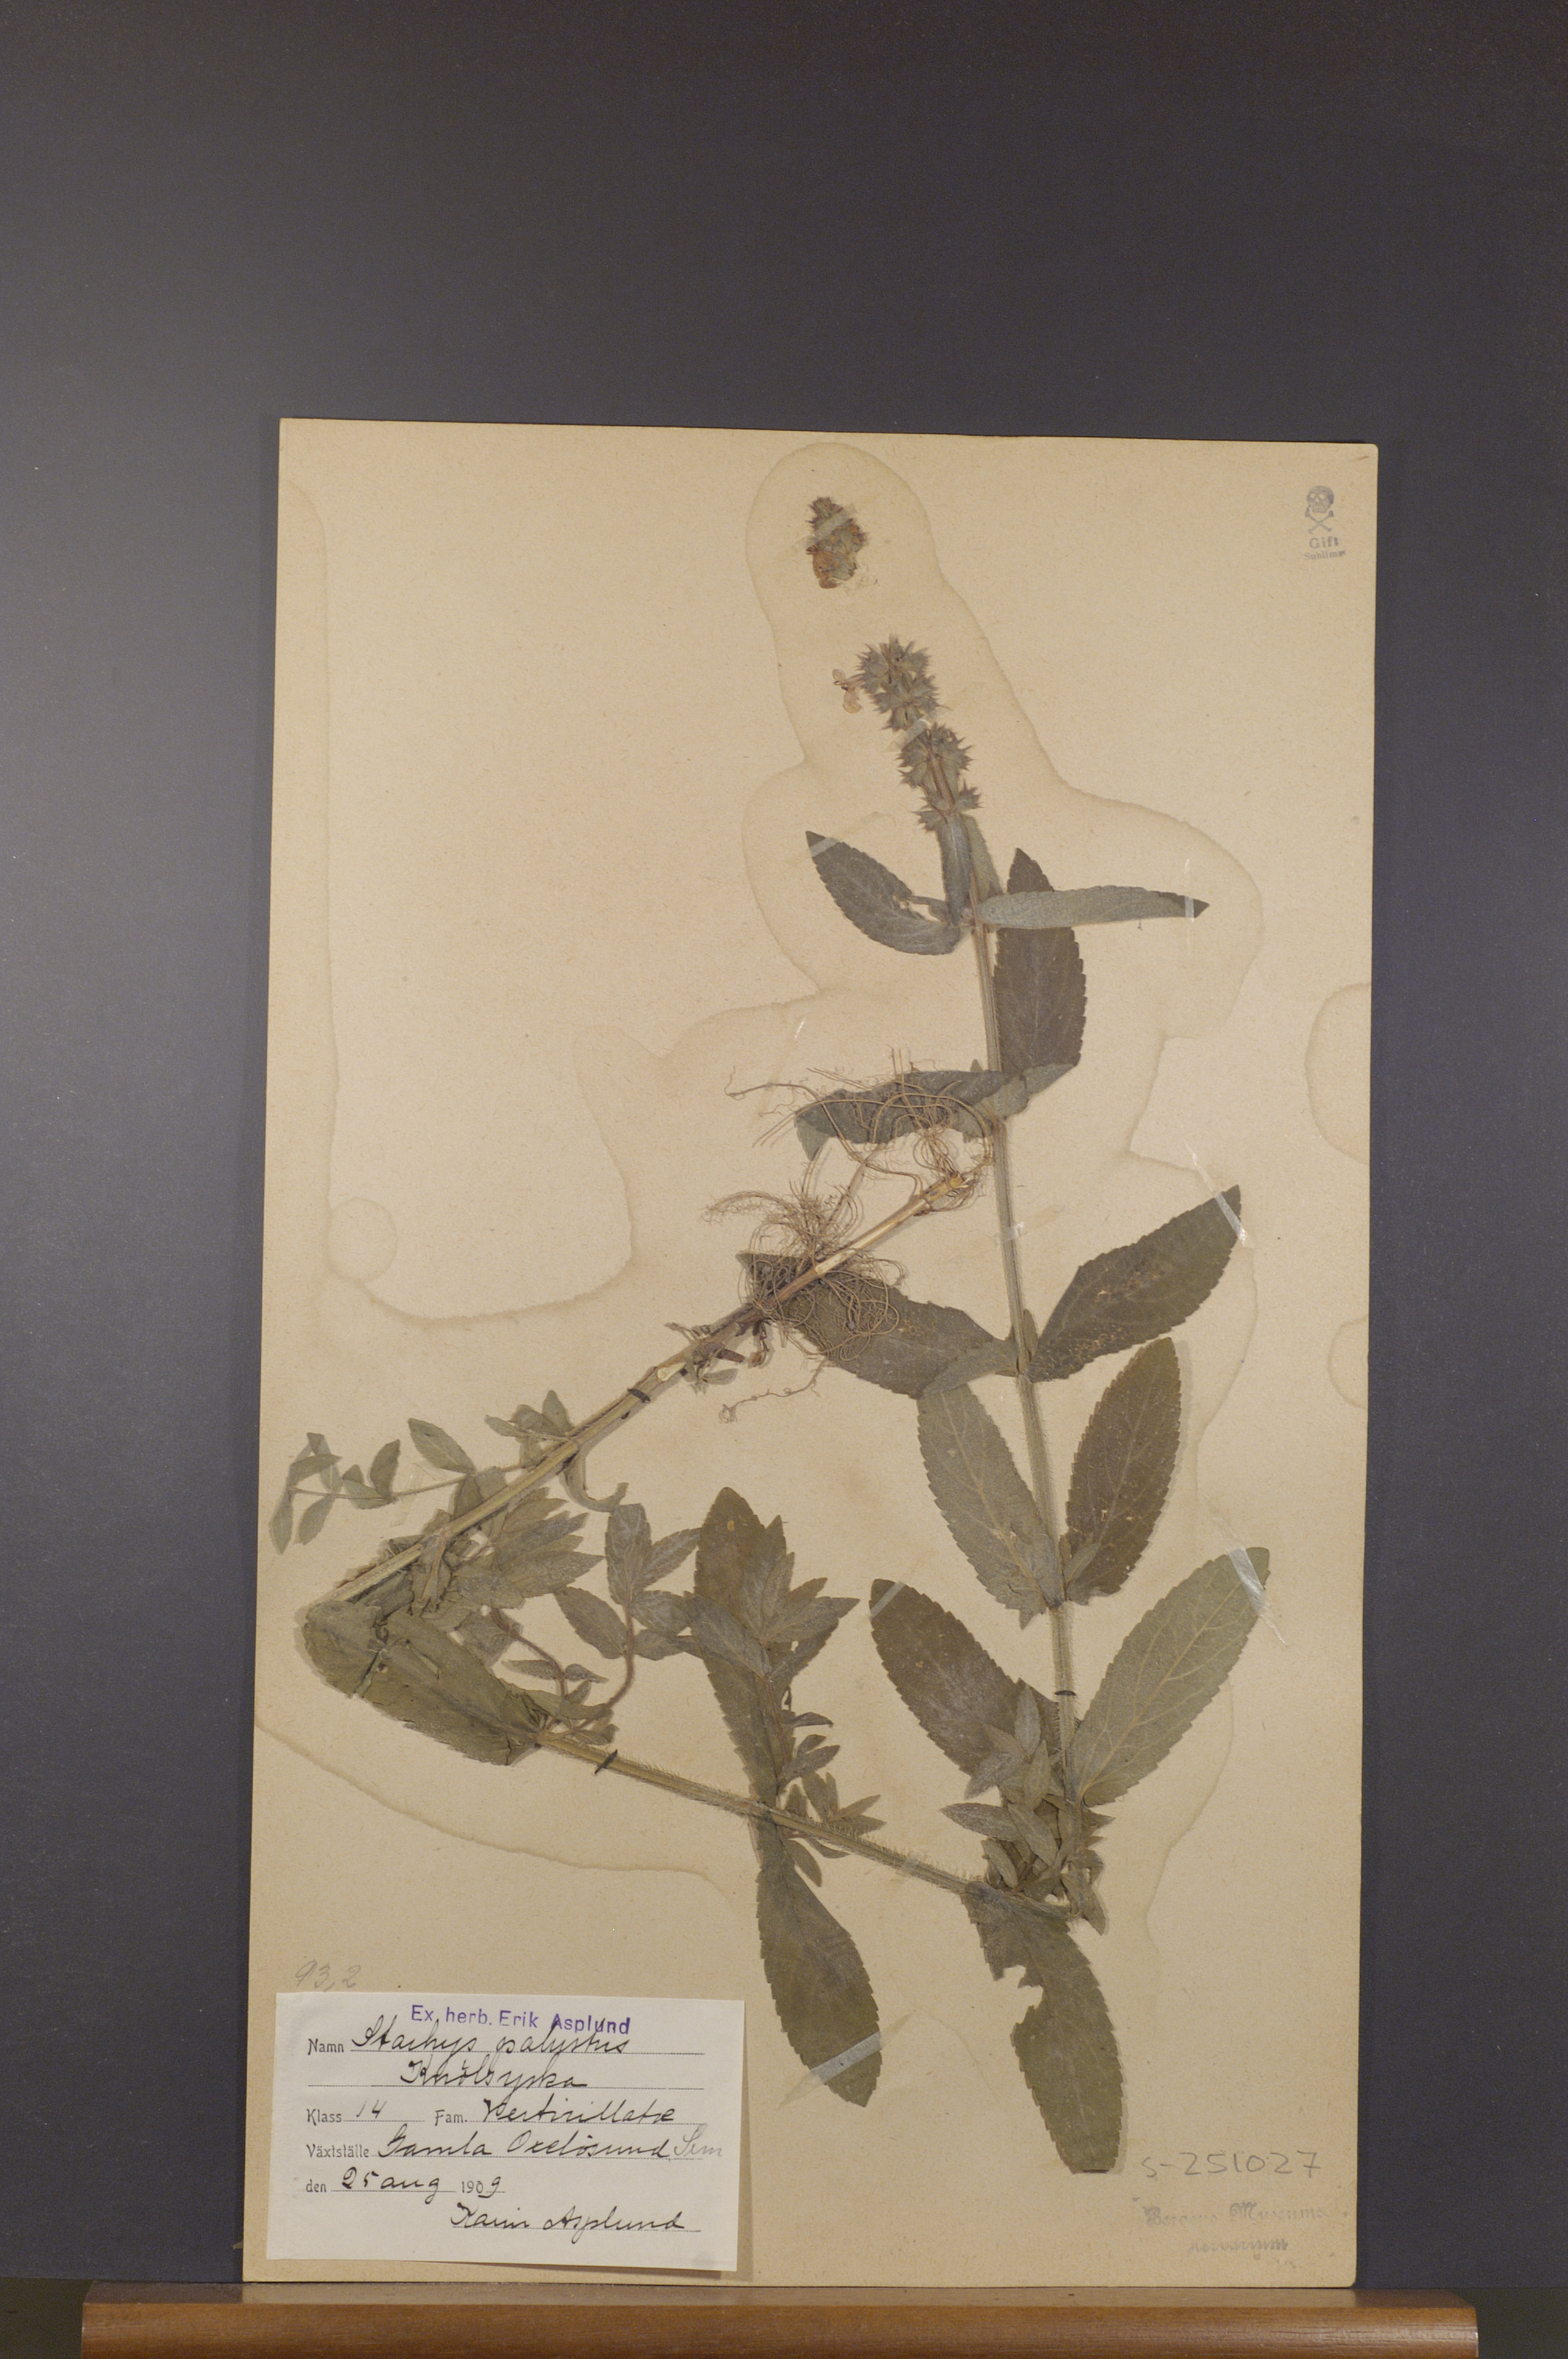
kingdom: Plantae
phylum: Tracheophyta
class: Magnoliopsida
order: Lamiales
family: Lamiaceae
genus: Stachys
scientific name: Stachys palustris
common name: Marsh woundwort
